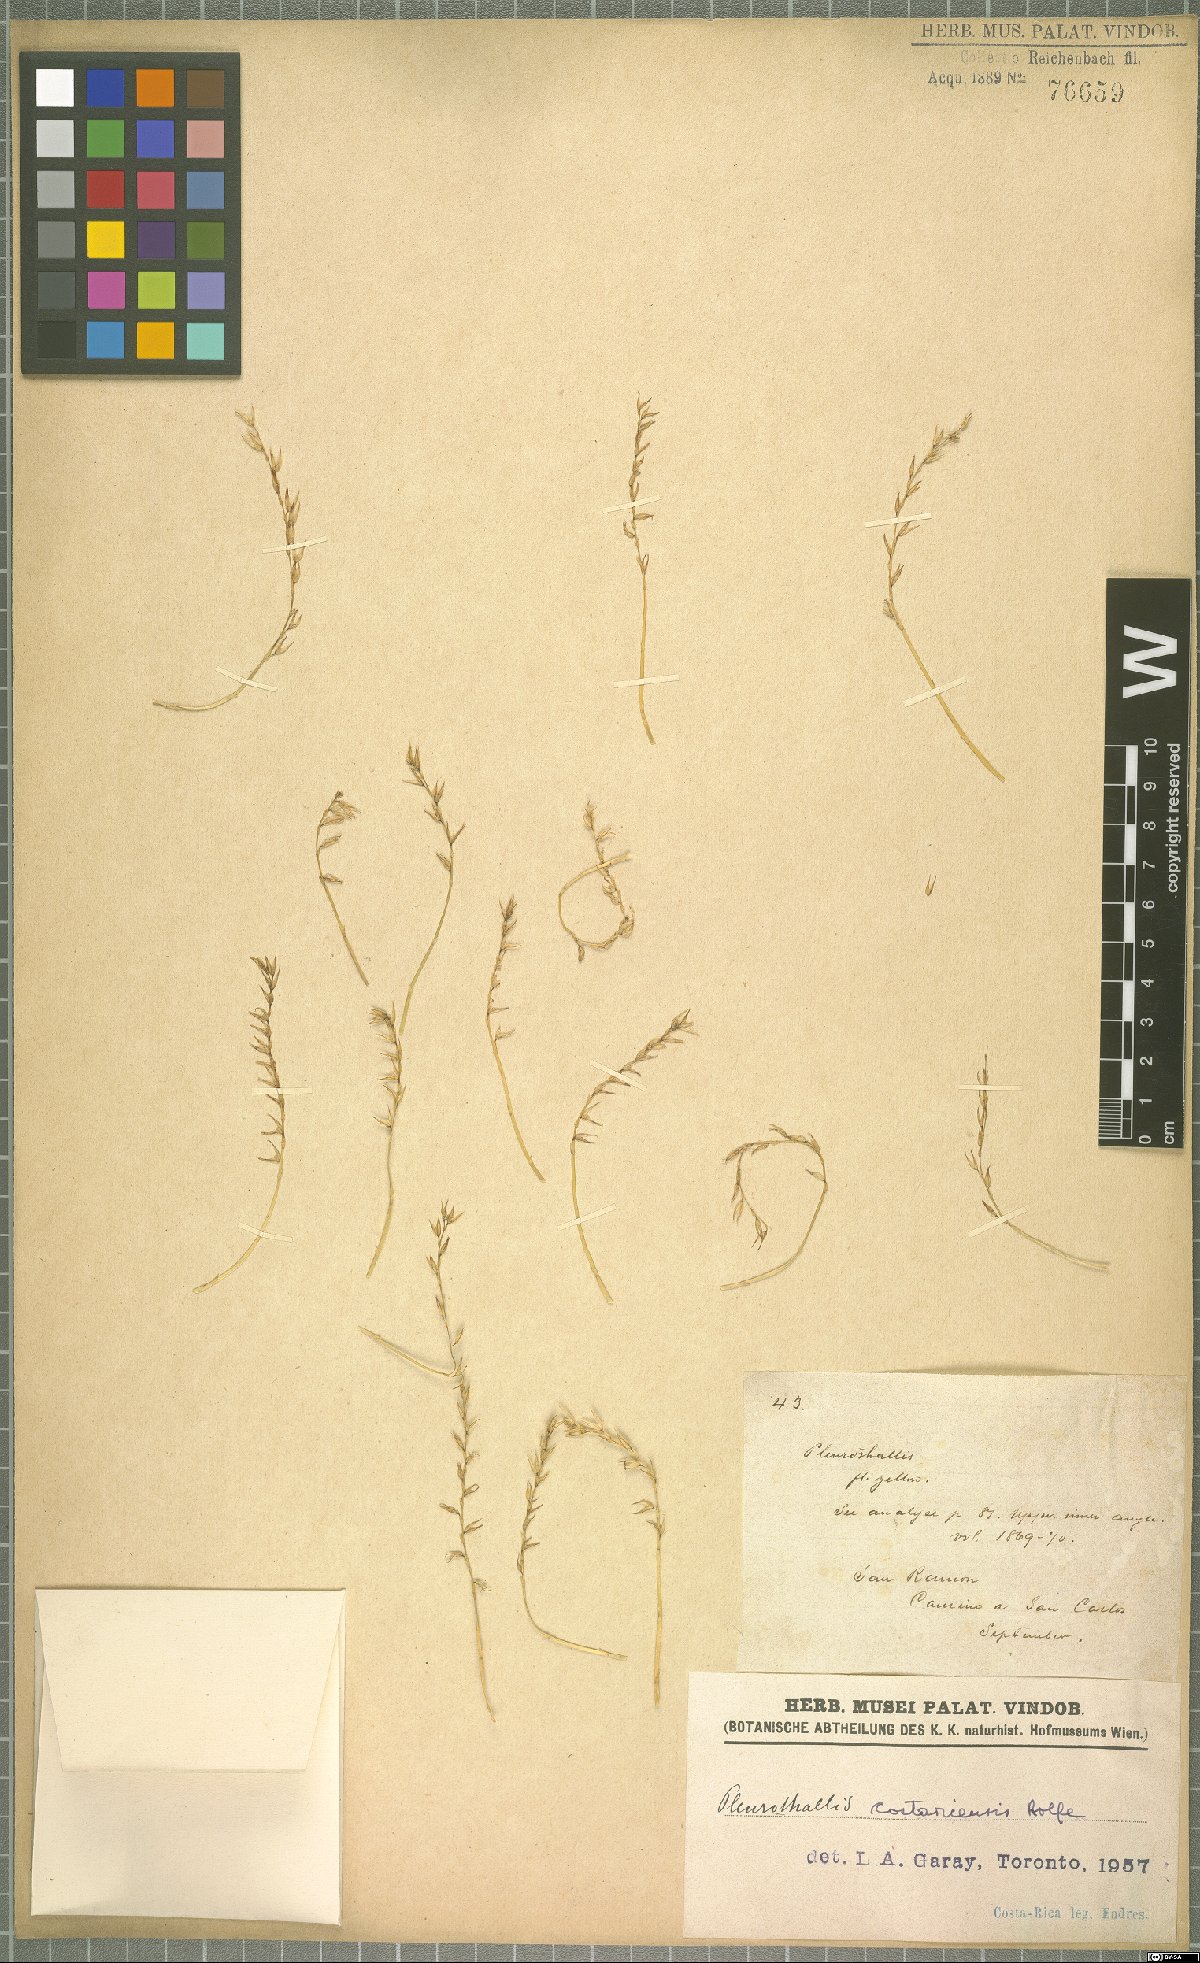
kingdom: Plantae
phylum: Tracheophyta
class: Liliopsida
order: Asparagales
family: Orchidaceae
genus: Specklinia
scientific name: Specklinia costaricensis
